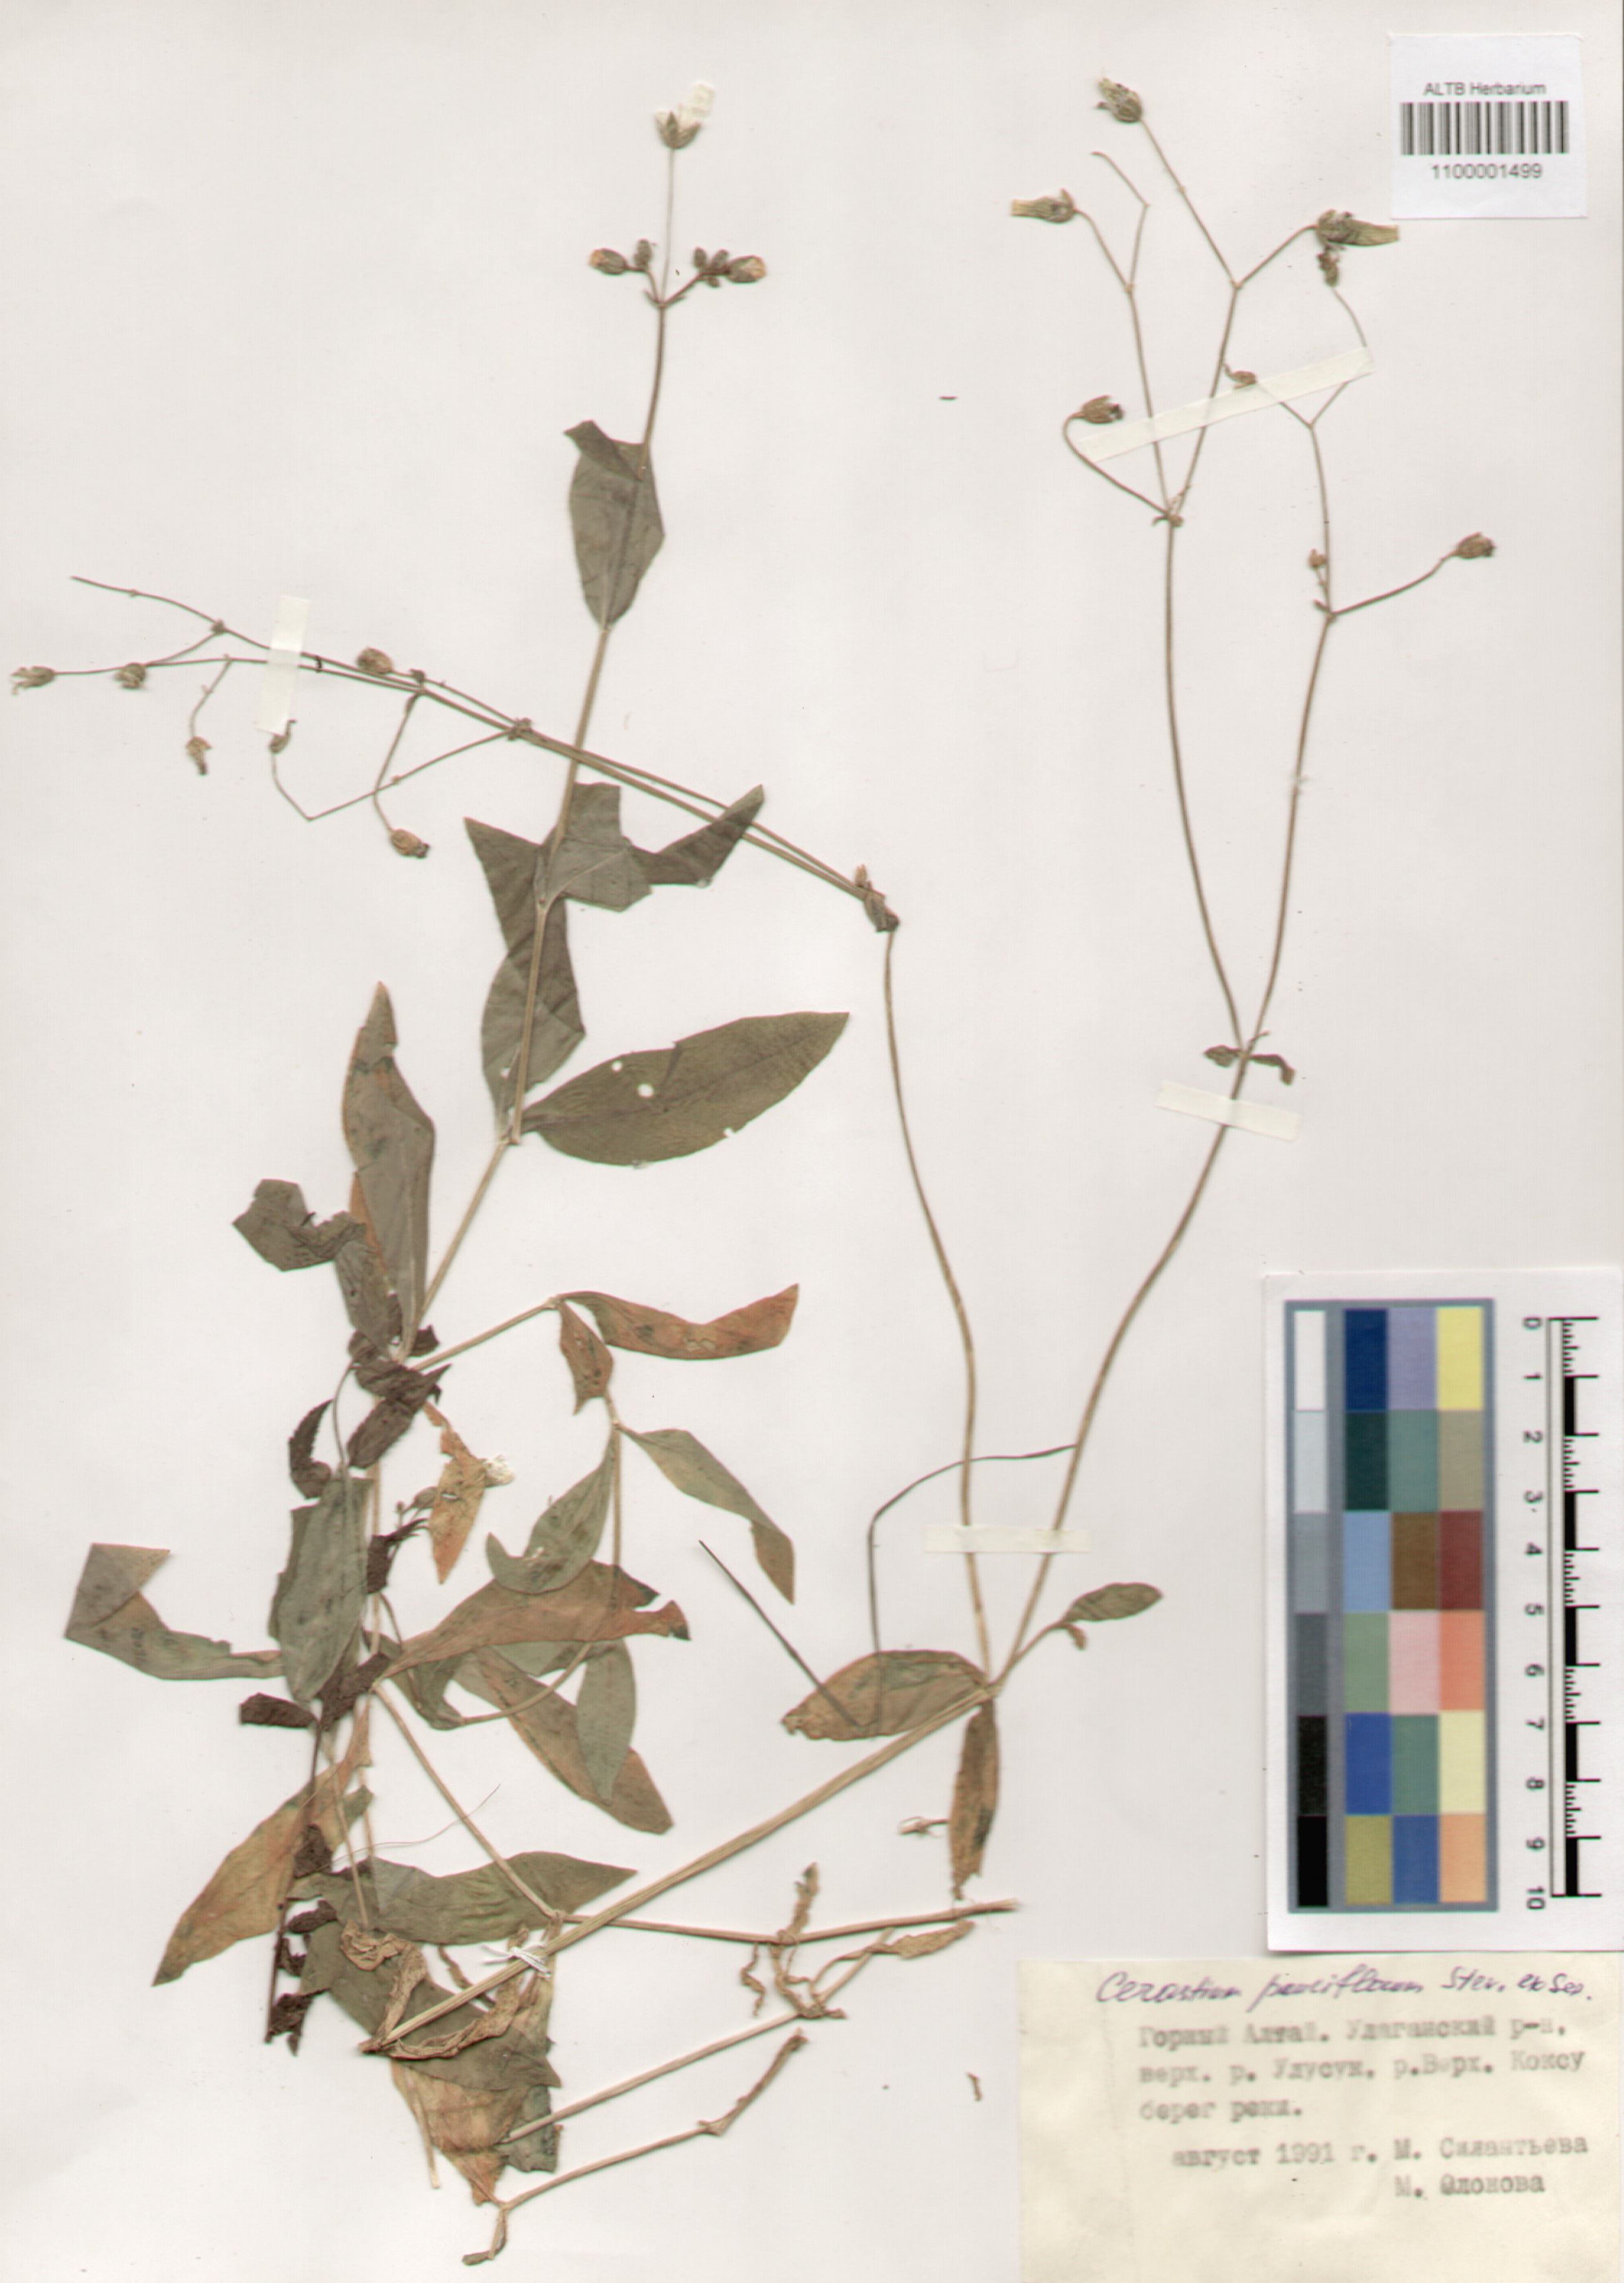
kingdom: Plantae
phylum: Tracheophyta
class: Magnoliopsida
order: Caryophyllales
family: Caryophyllaceae
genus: Cerastium
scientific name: Cerastium pauciflorum
